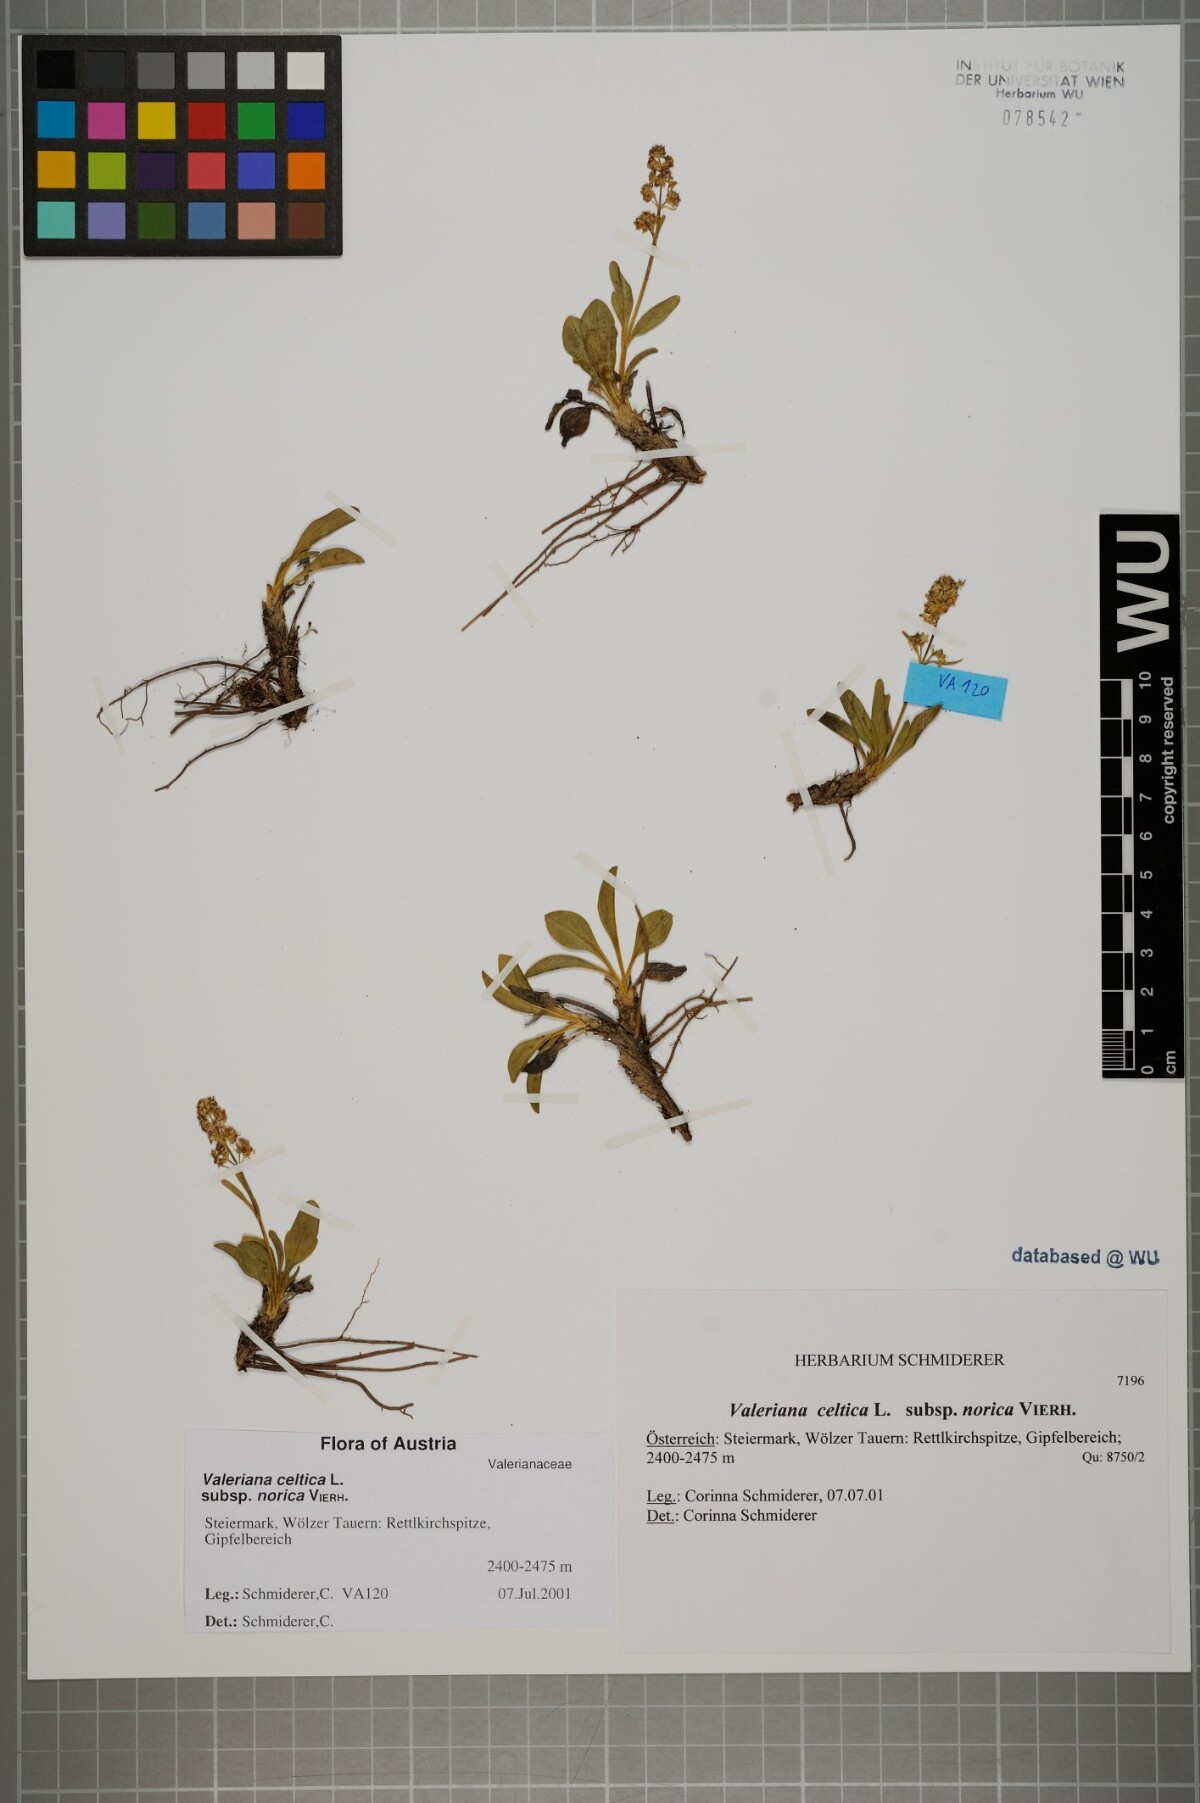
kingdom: Plantae
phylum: Tracheophyta
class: Magnoliopsida
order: Dipsacales
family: Caprifoliaceae
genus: Valeriana
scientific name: Valeriana celtica
